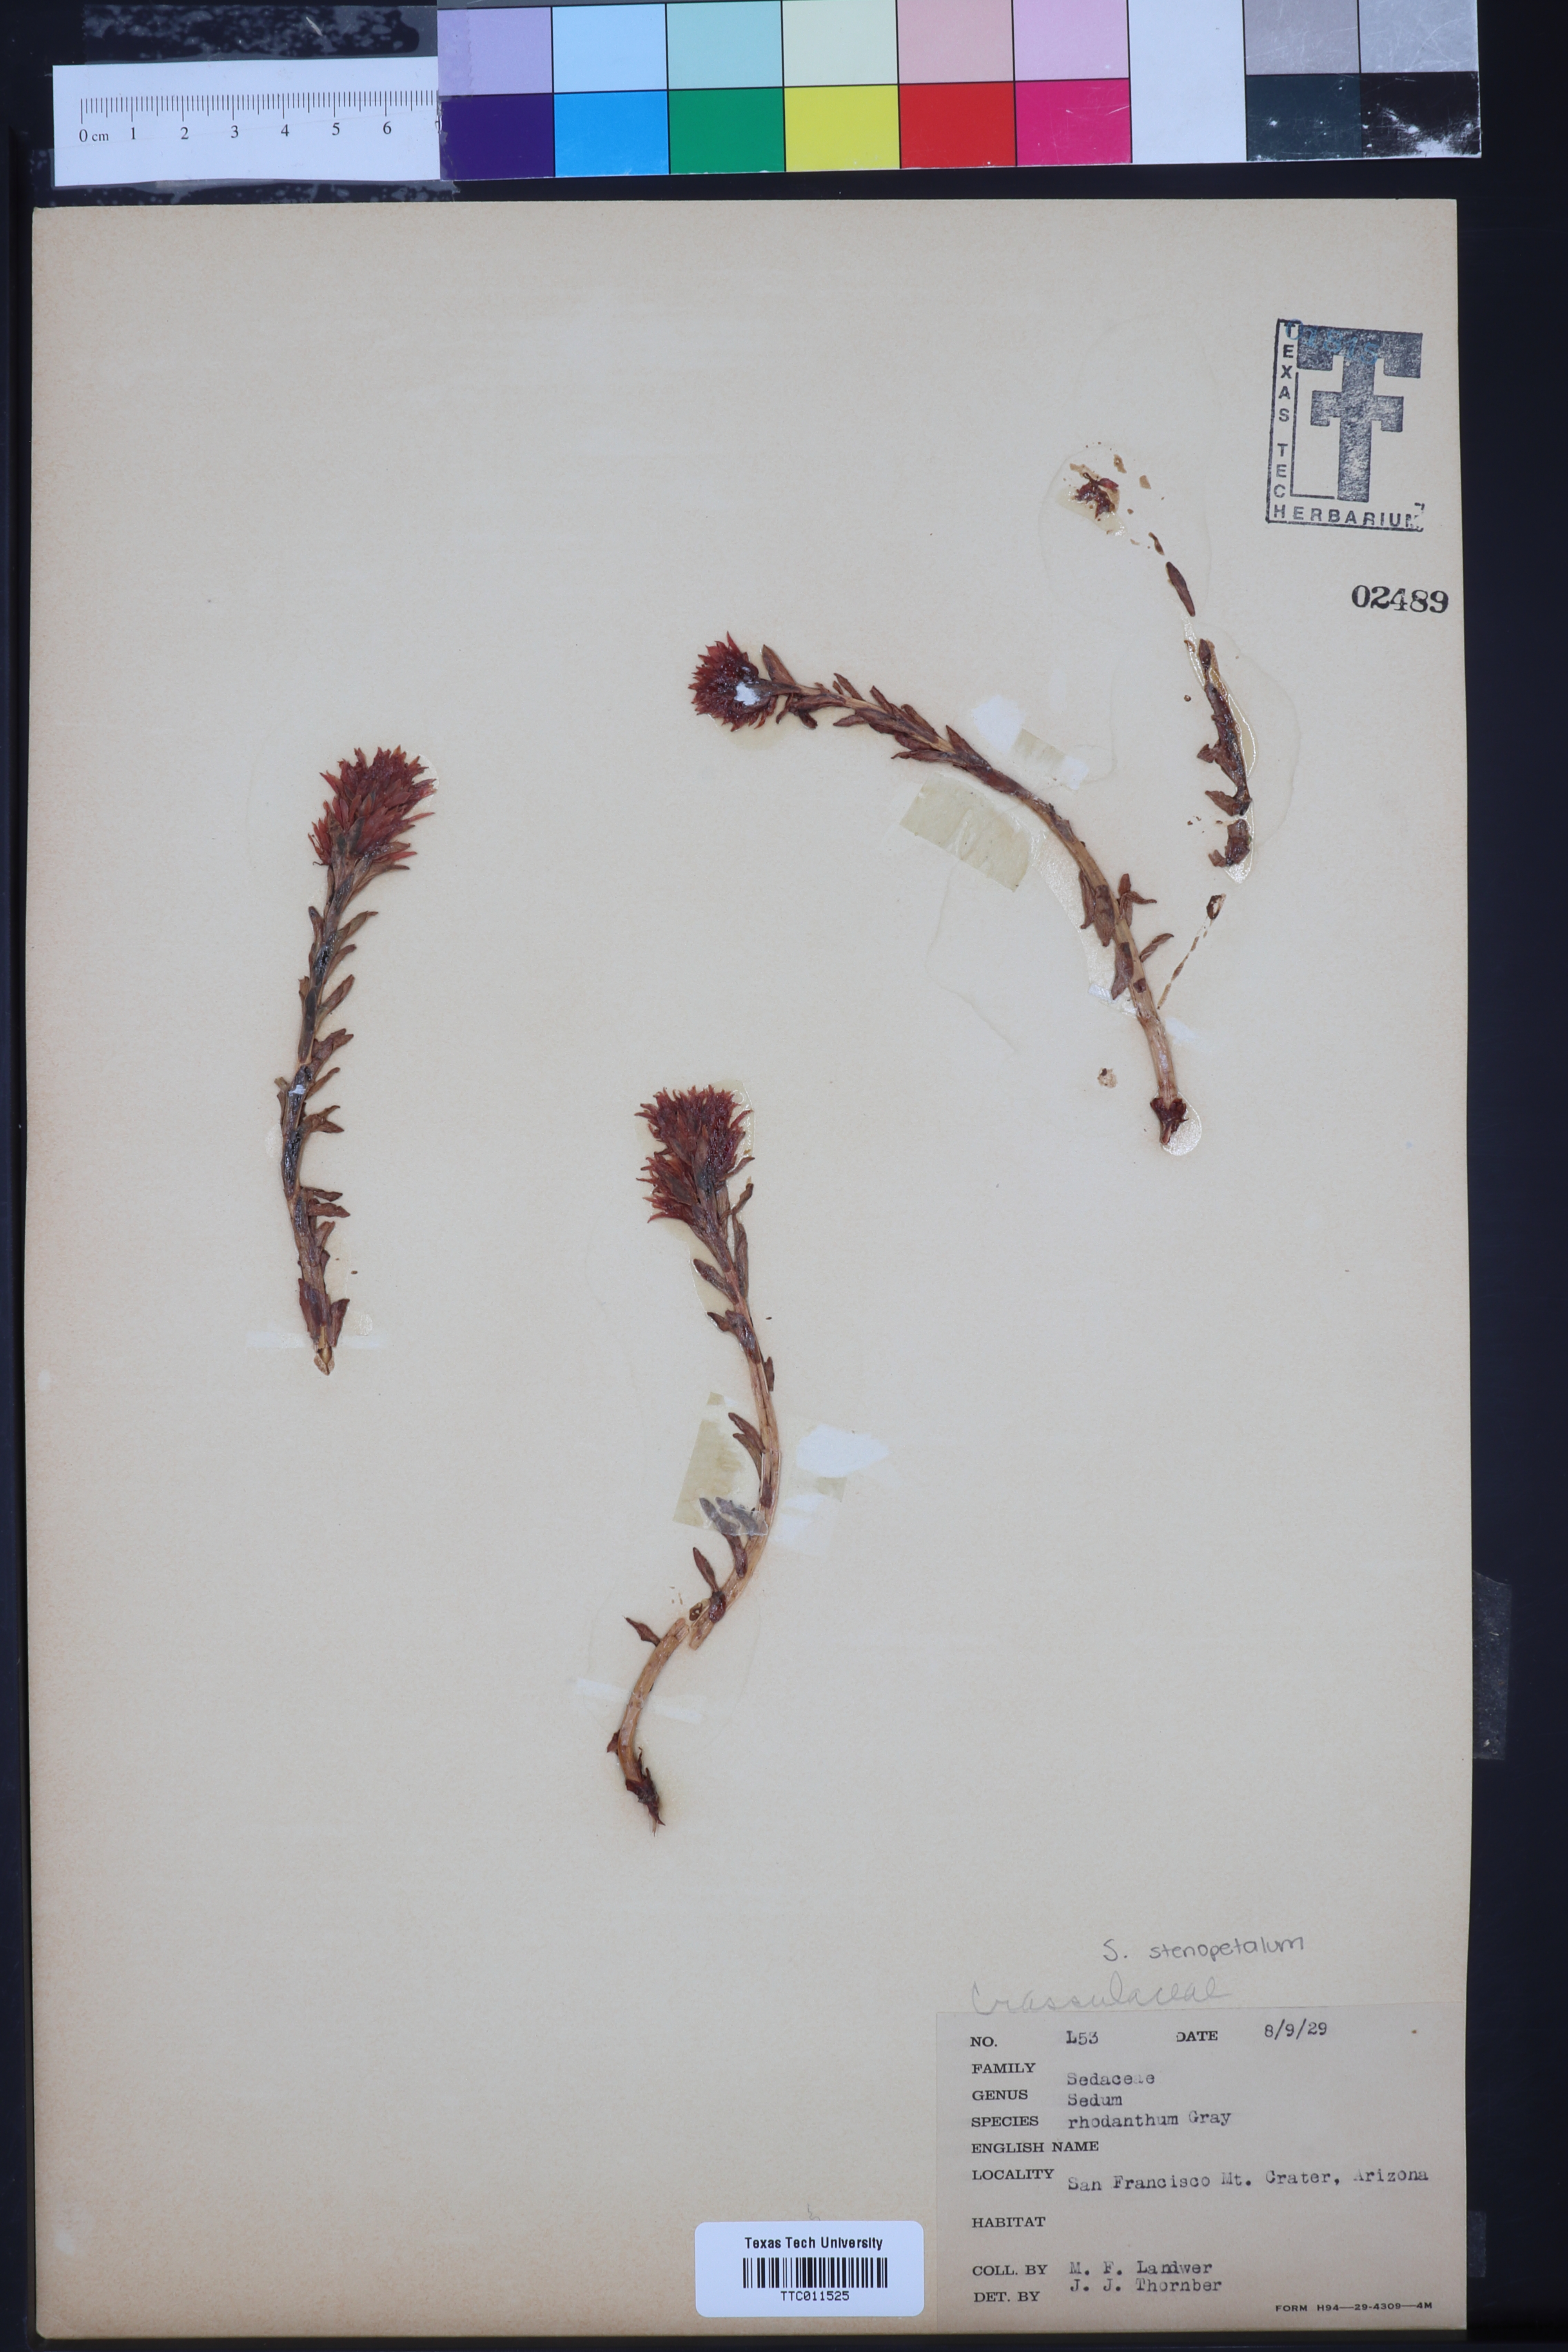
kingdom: Plantae
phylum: Tracheophyta
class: Magnoliopsida
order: Saxifragales
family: Crassulaceae
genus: Rhodiola
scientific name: Rhodiola rhodantha
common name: Red orpine
